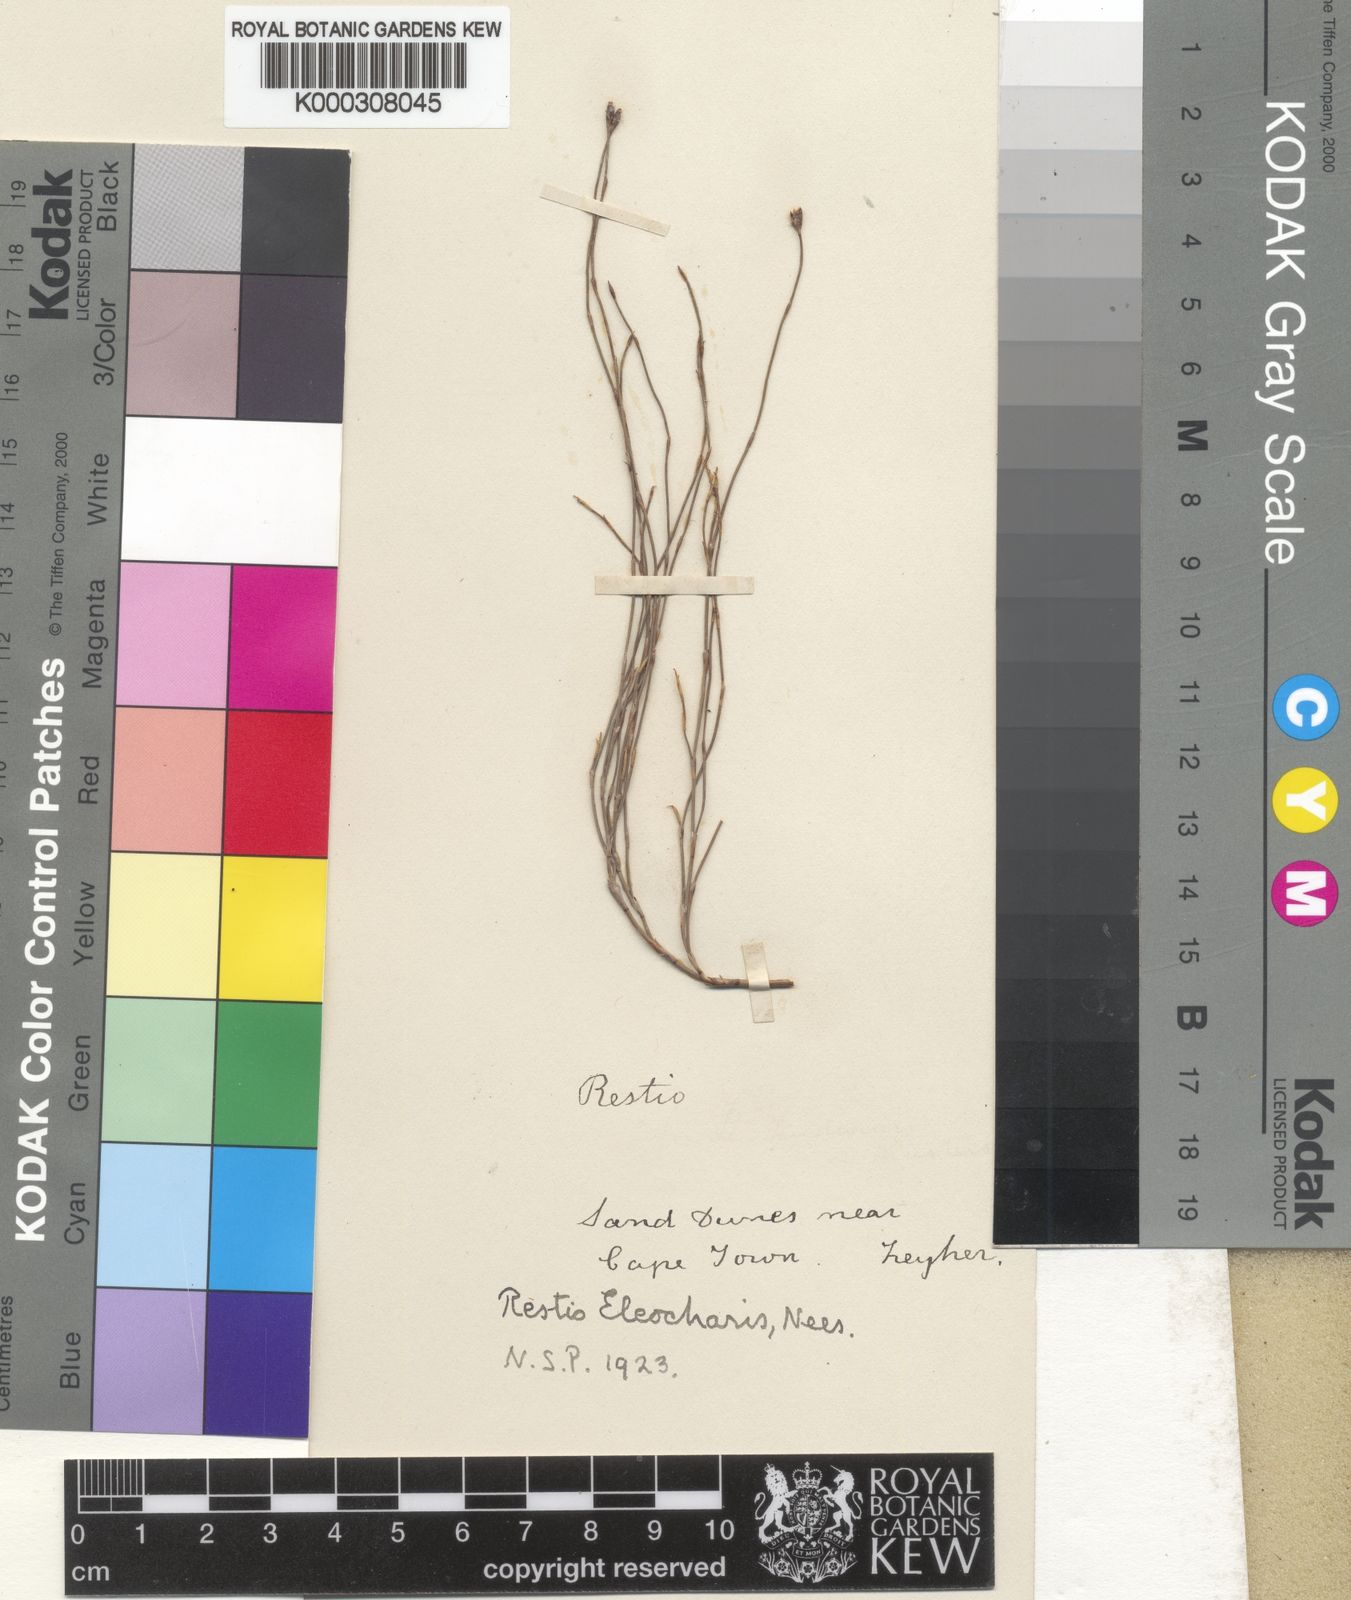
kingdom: Plantae
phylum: Tracheophyta
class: Liliopsida
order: Poales
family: Restionaceae
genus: Restio
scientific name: Restio eleocharis
